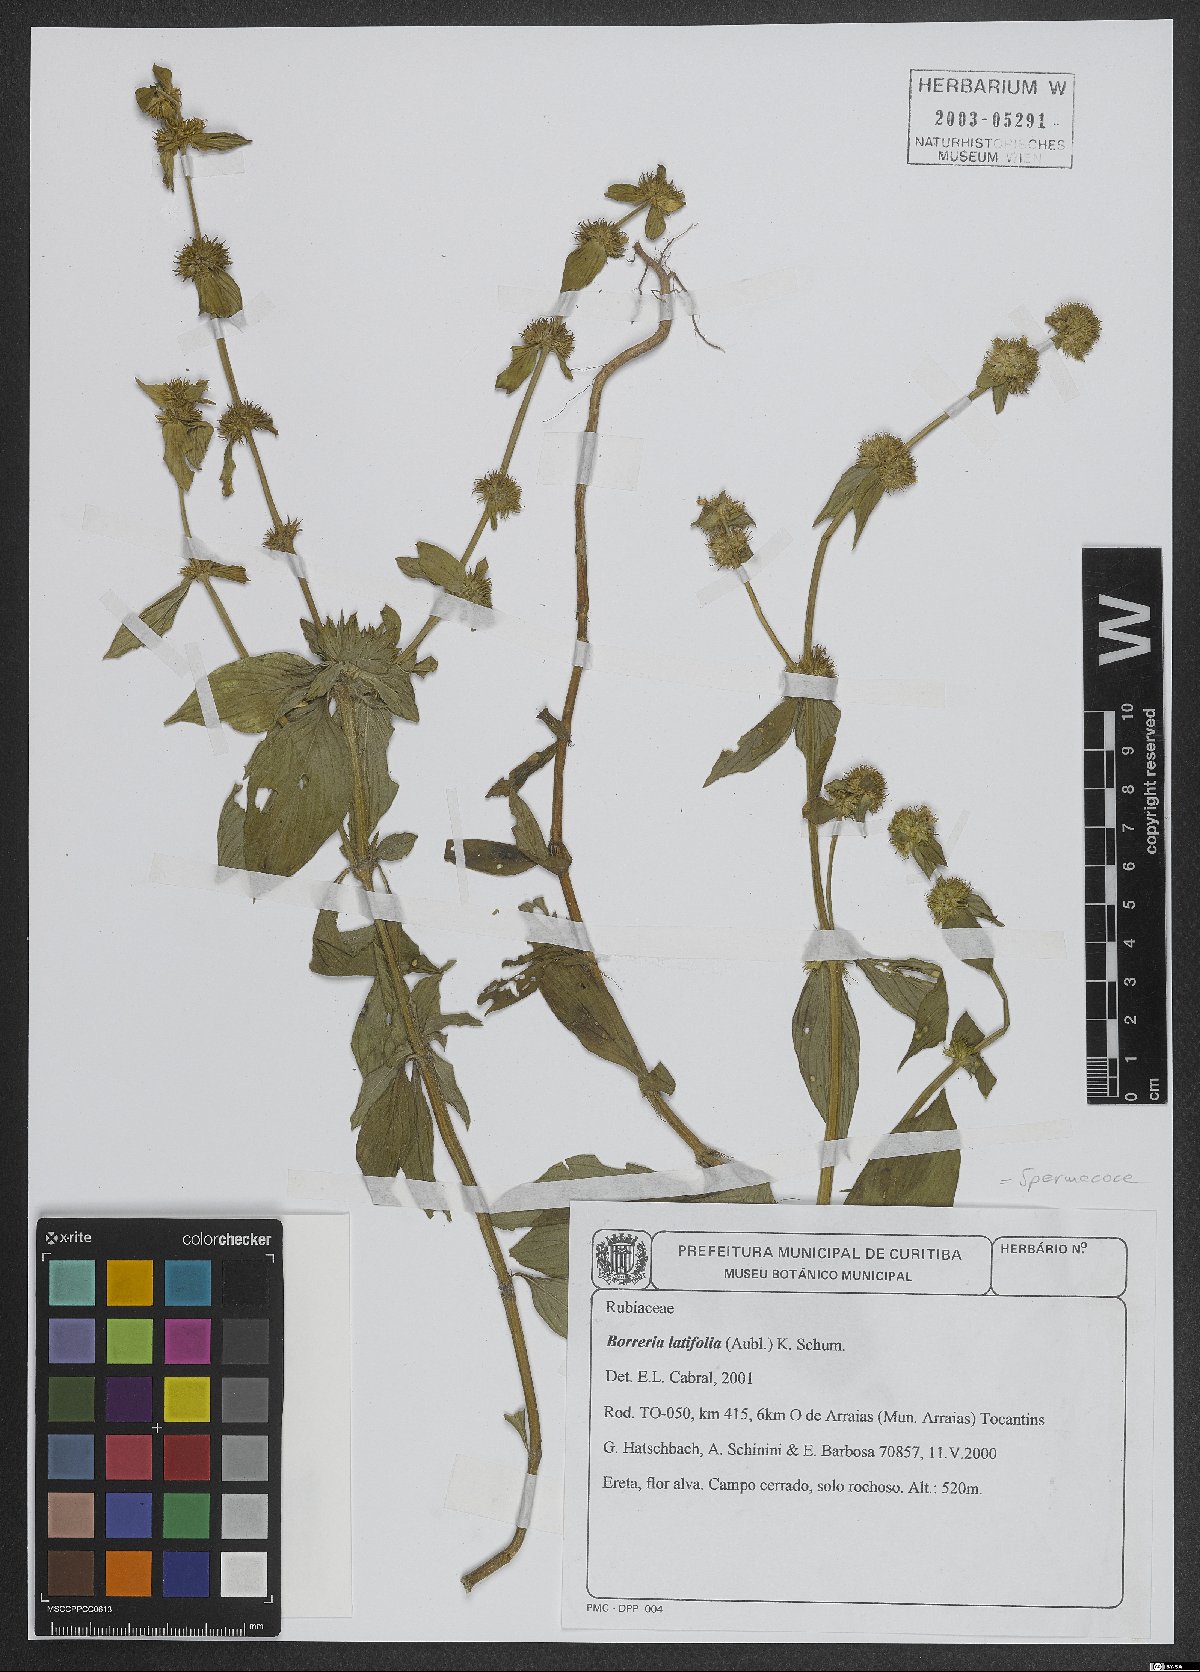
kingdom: Plantae
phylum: Tracheophyta
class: Magnoliopsida
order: Gentianales
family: Rubiaceae
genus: Spermacoce
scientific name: Spermacoce latifolia
